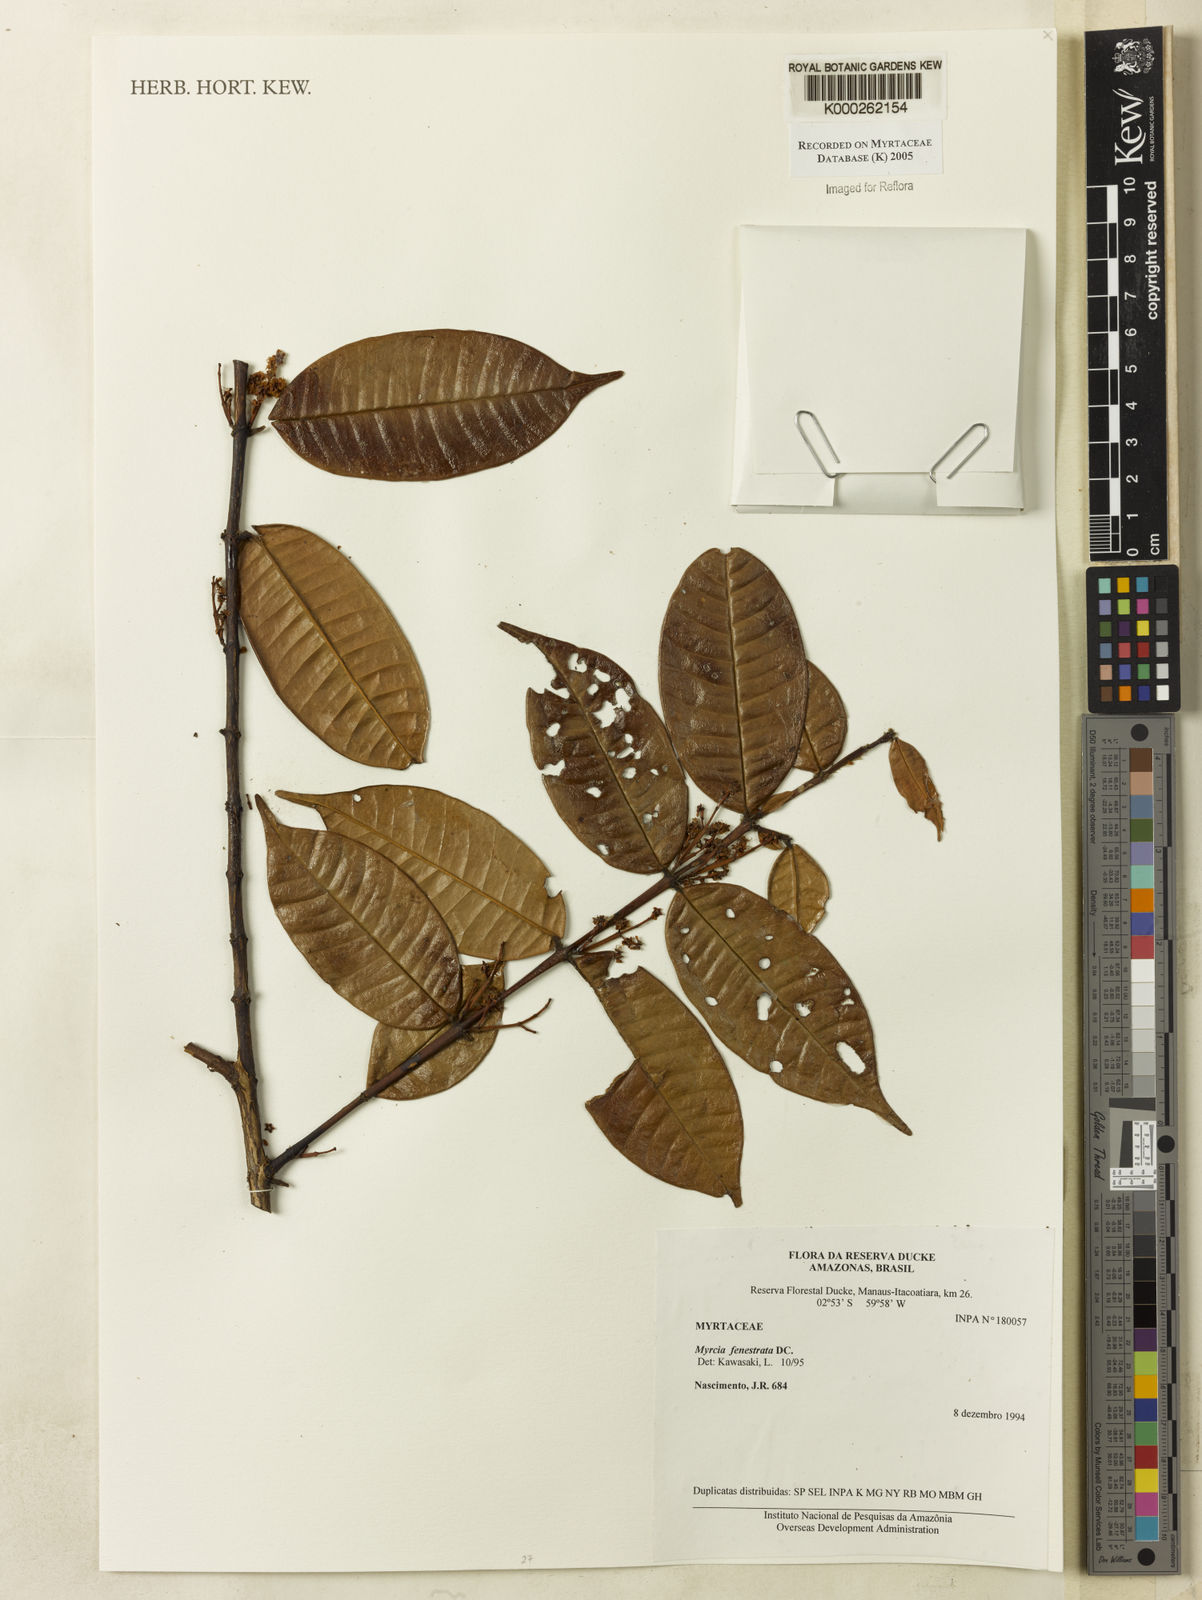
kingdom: Plantae
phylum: Tracheophyta
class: Magnoliopsida
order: Myrtales
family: Myrtaceae
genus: Myrcia
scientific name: Myrcia fenestrata
